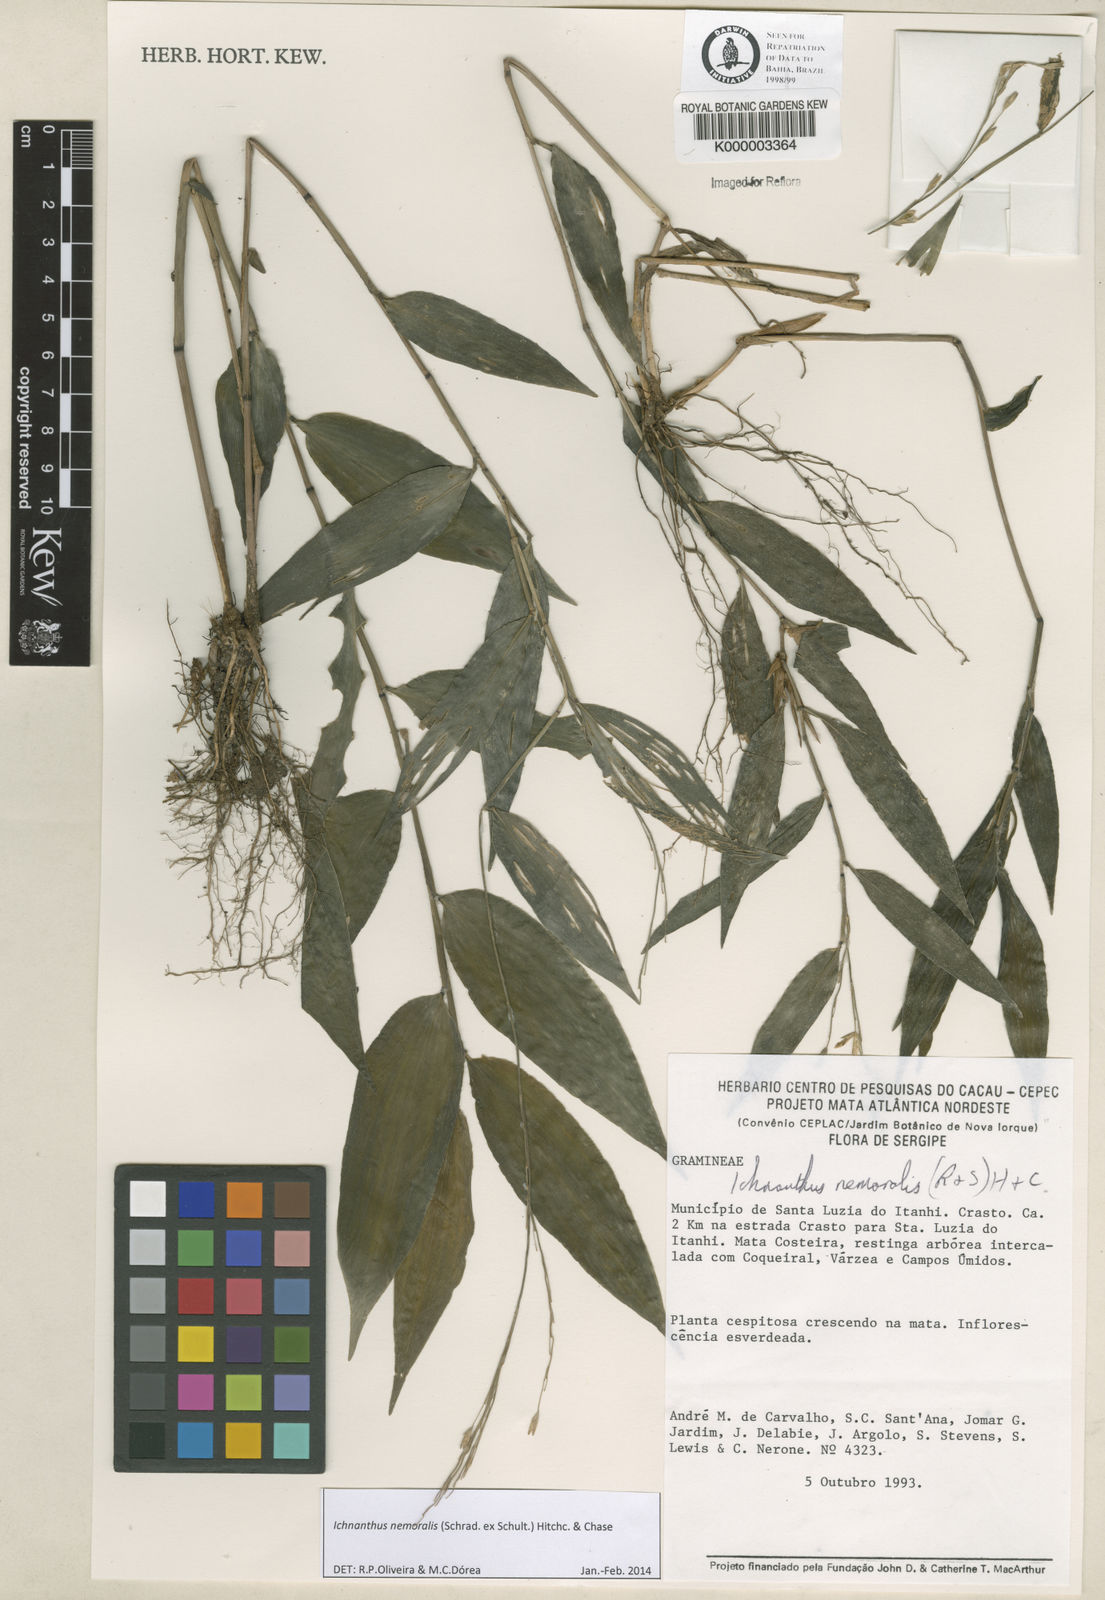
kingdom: Plantae
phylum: Tracheophyta
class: Liliopsida
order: Poales
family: Poaceae
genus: Ichnanthus
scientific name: Ichnanthus nemoralis
